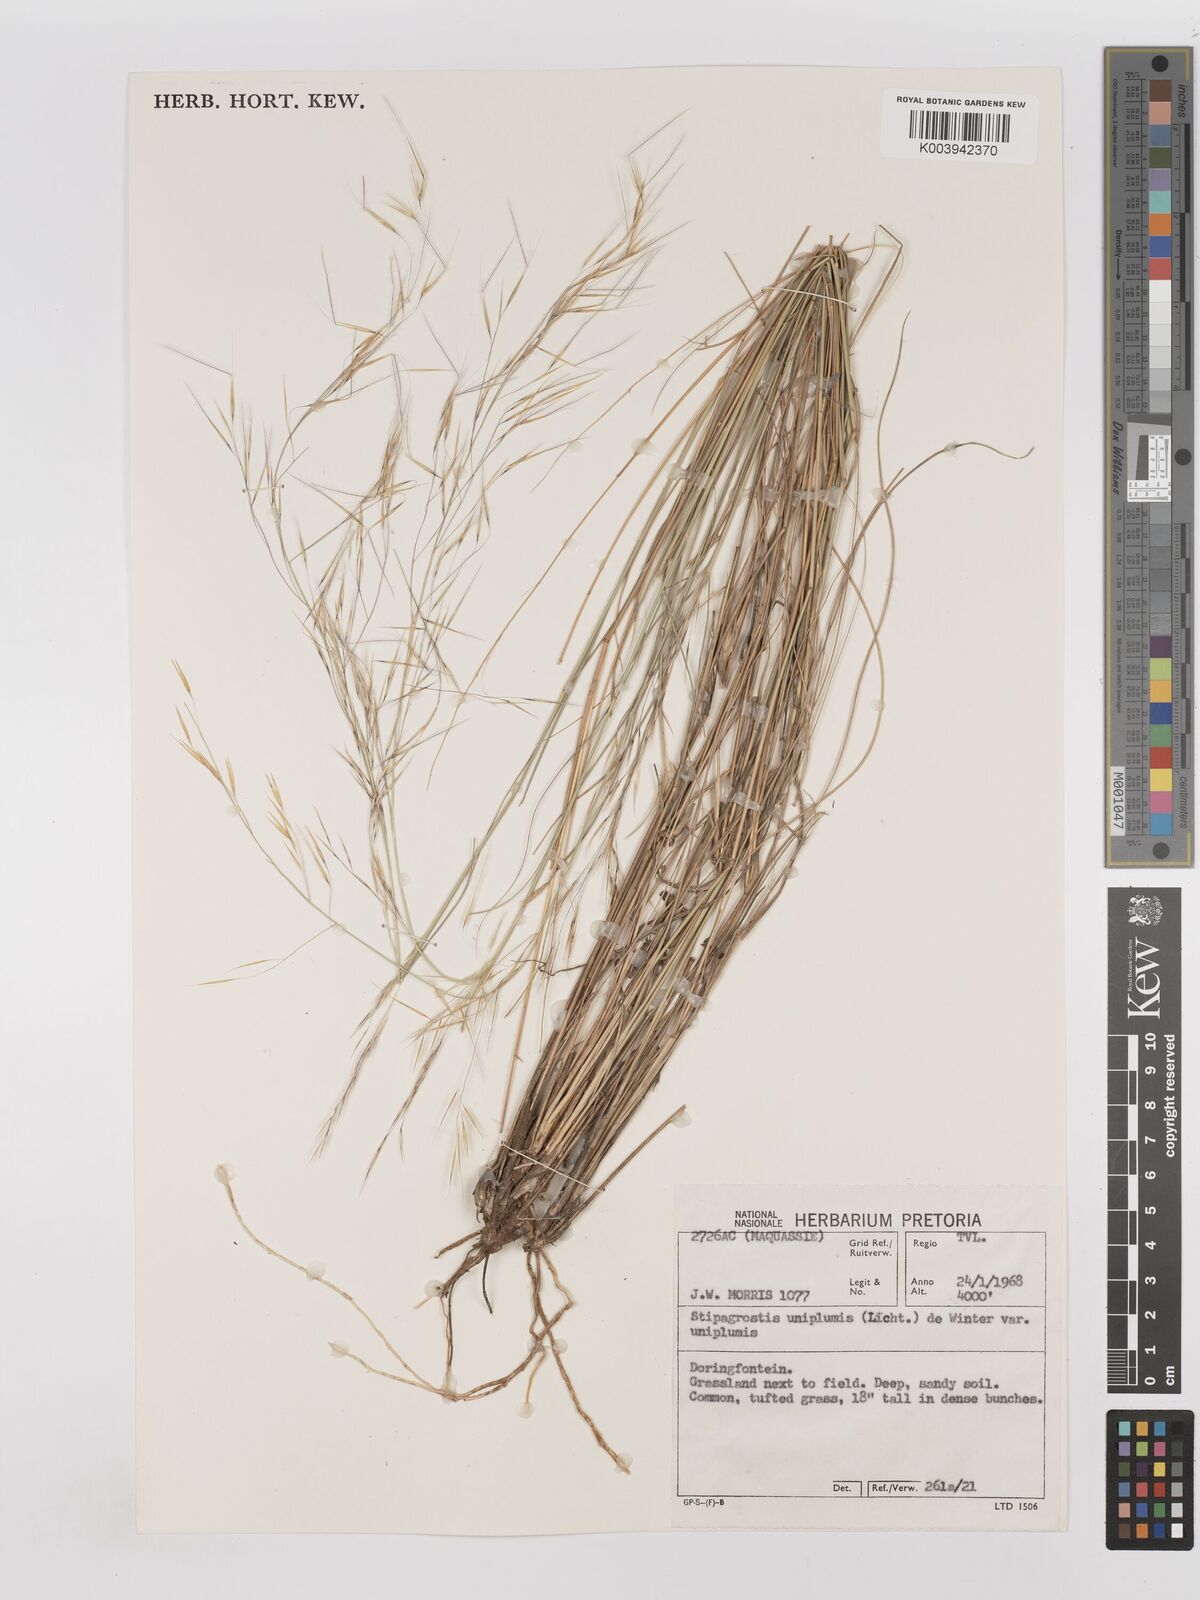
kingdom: Plantae
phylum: Tracheophyta
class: Liliopsida
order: Poales
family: Poaceae
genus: Stipagrostis
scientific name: Stipagrostis uniplumis
